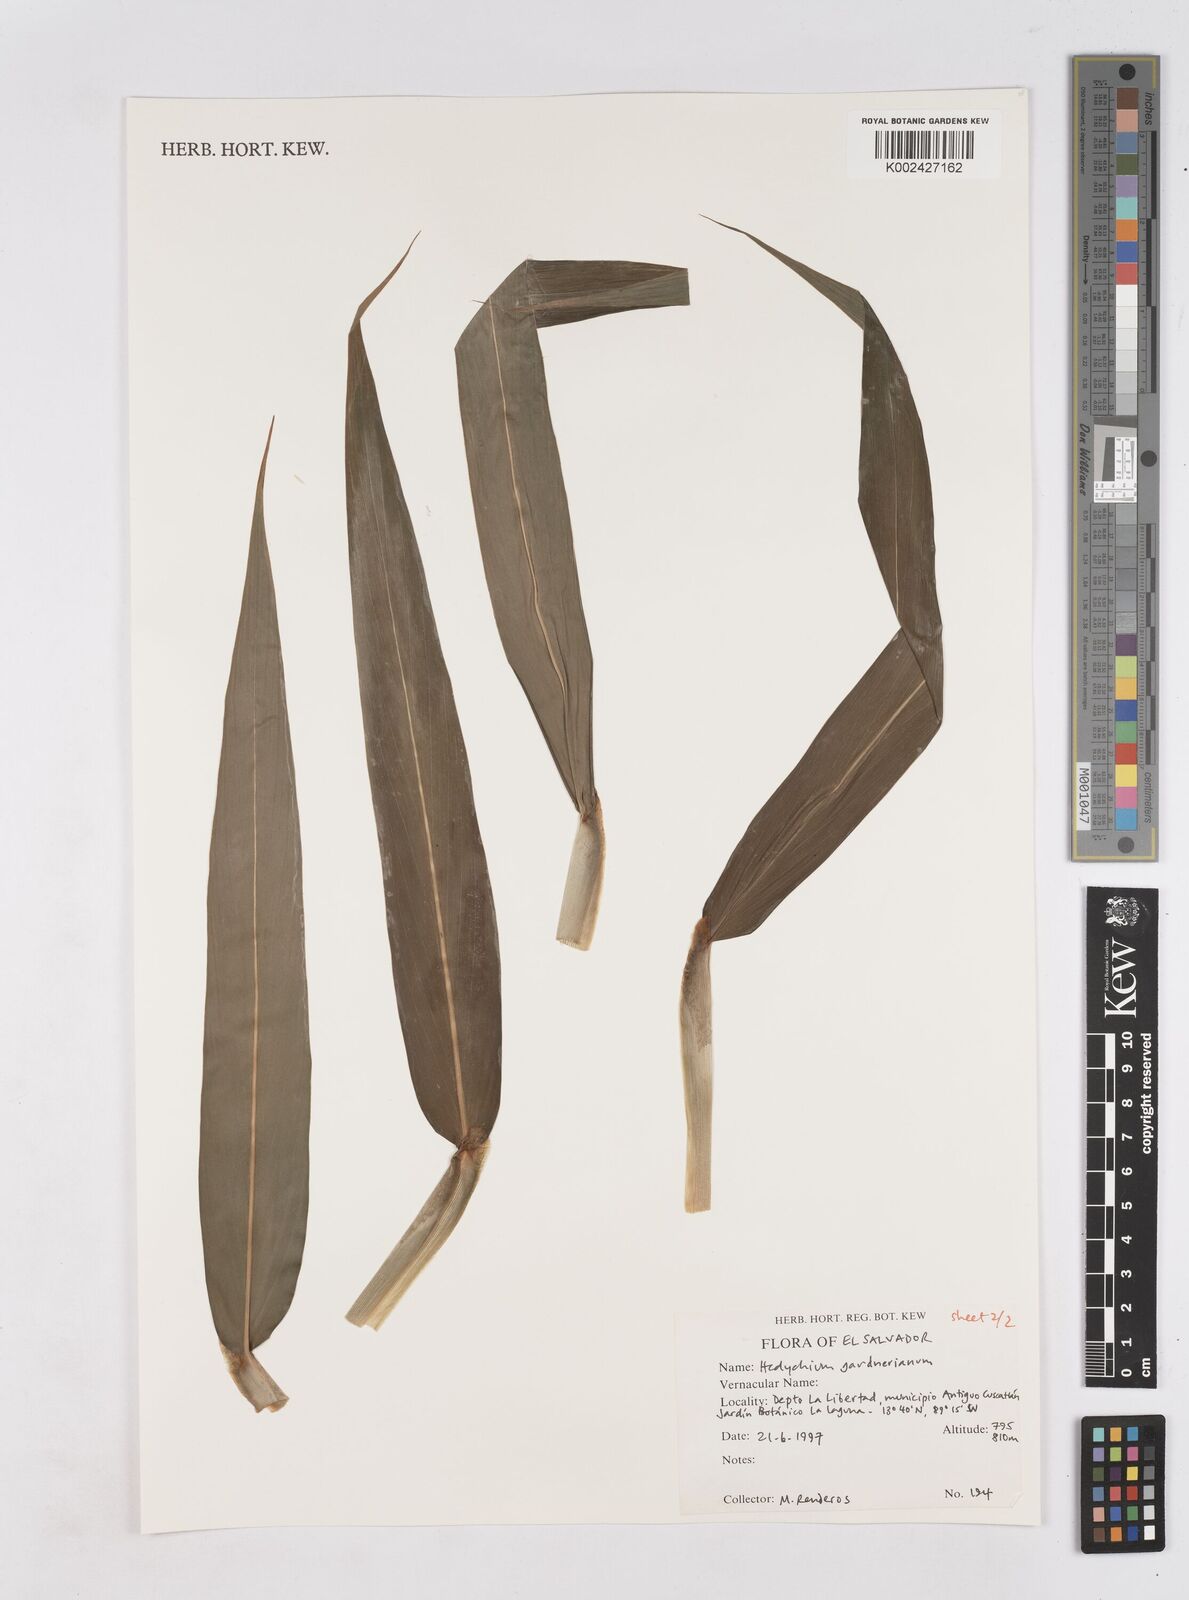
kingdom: Plantae
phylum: Tracheophyta
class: Liliopsida
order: Zingiberales
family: Zingiberaceae
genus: Hedychium
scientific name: Hedychium gardnerianum
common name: Himalayan ginger
